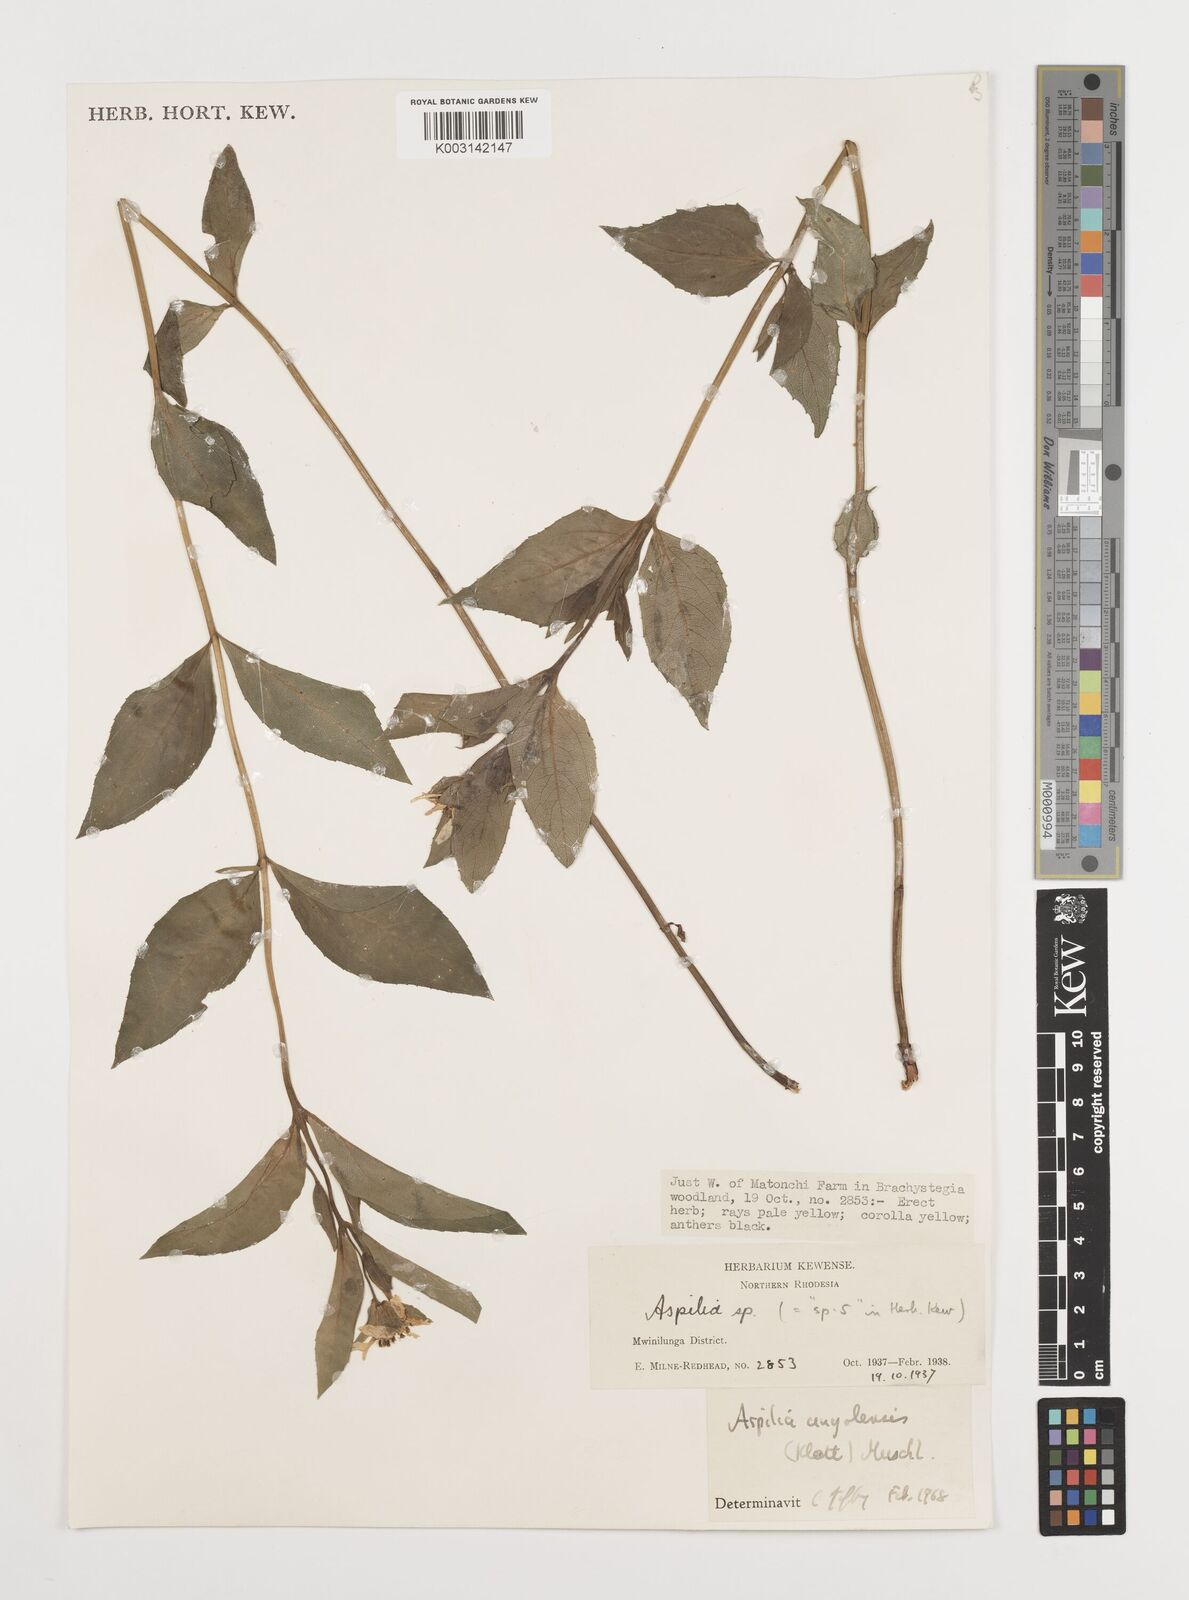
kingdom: Plantae
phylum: Tracheophyta
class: Magnoliopsida
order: Asterales
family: Asteraceae
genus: Aspilia
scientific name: Aspilia natalensis
